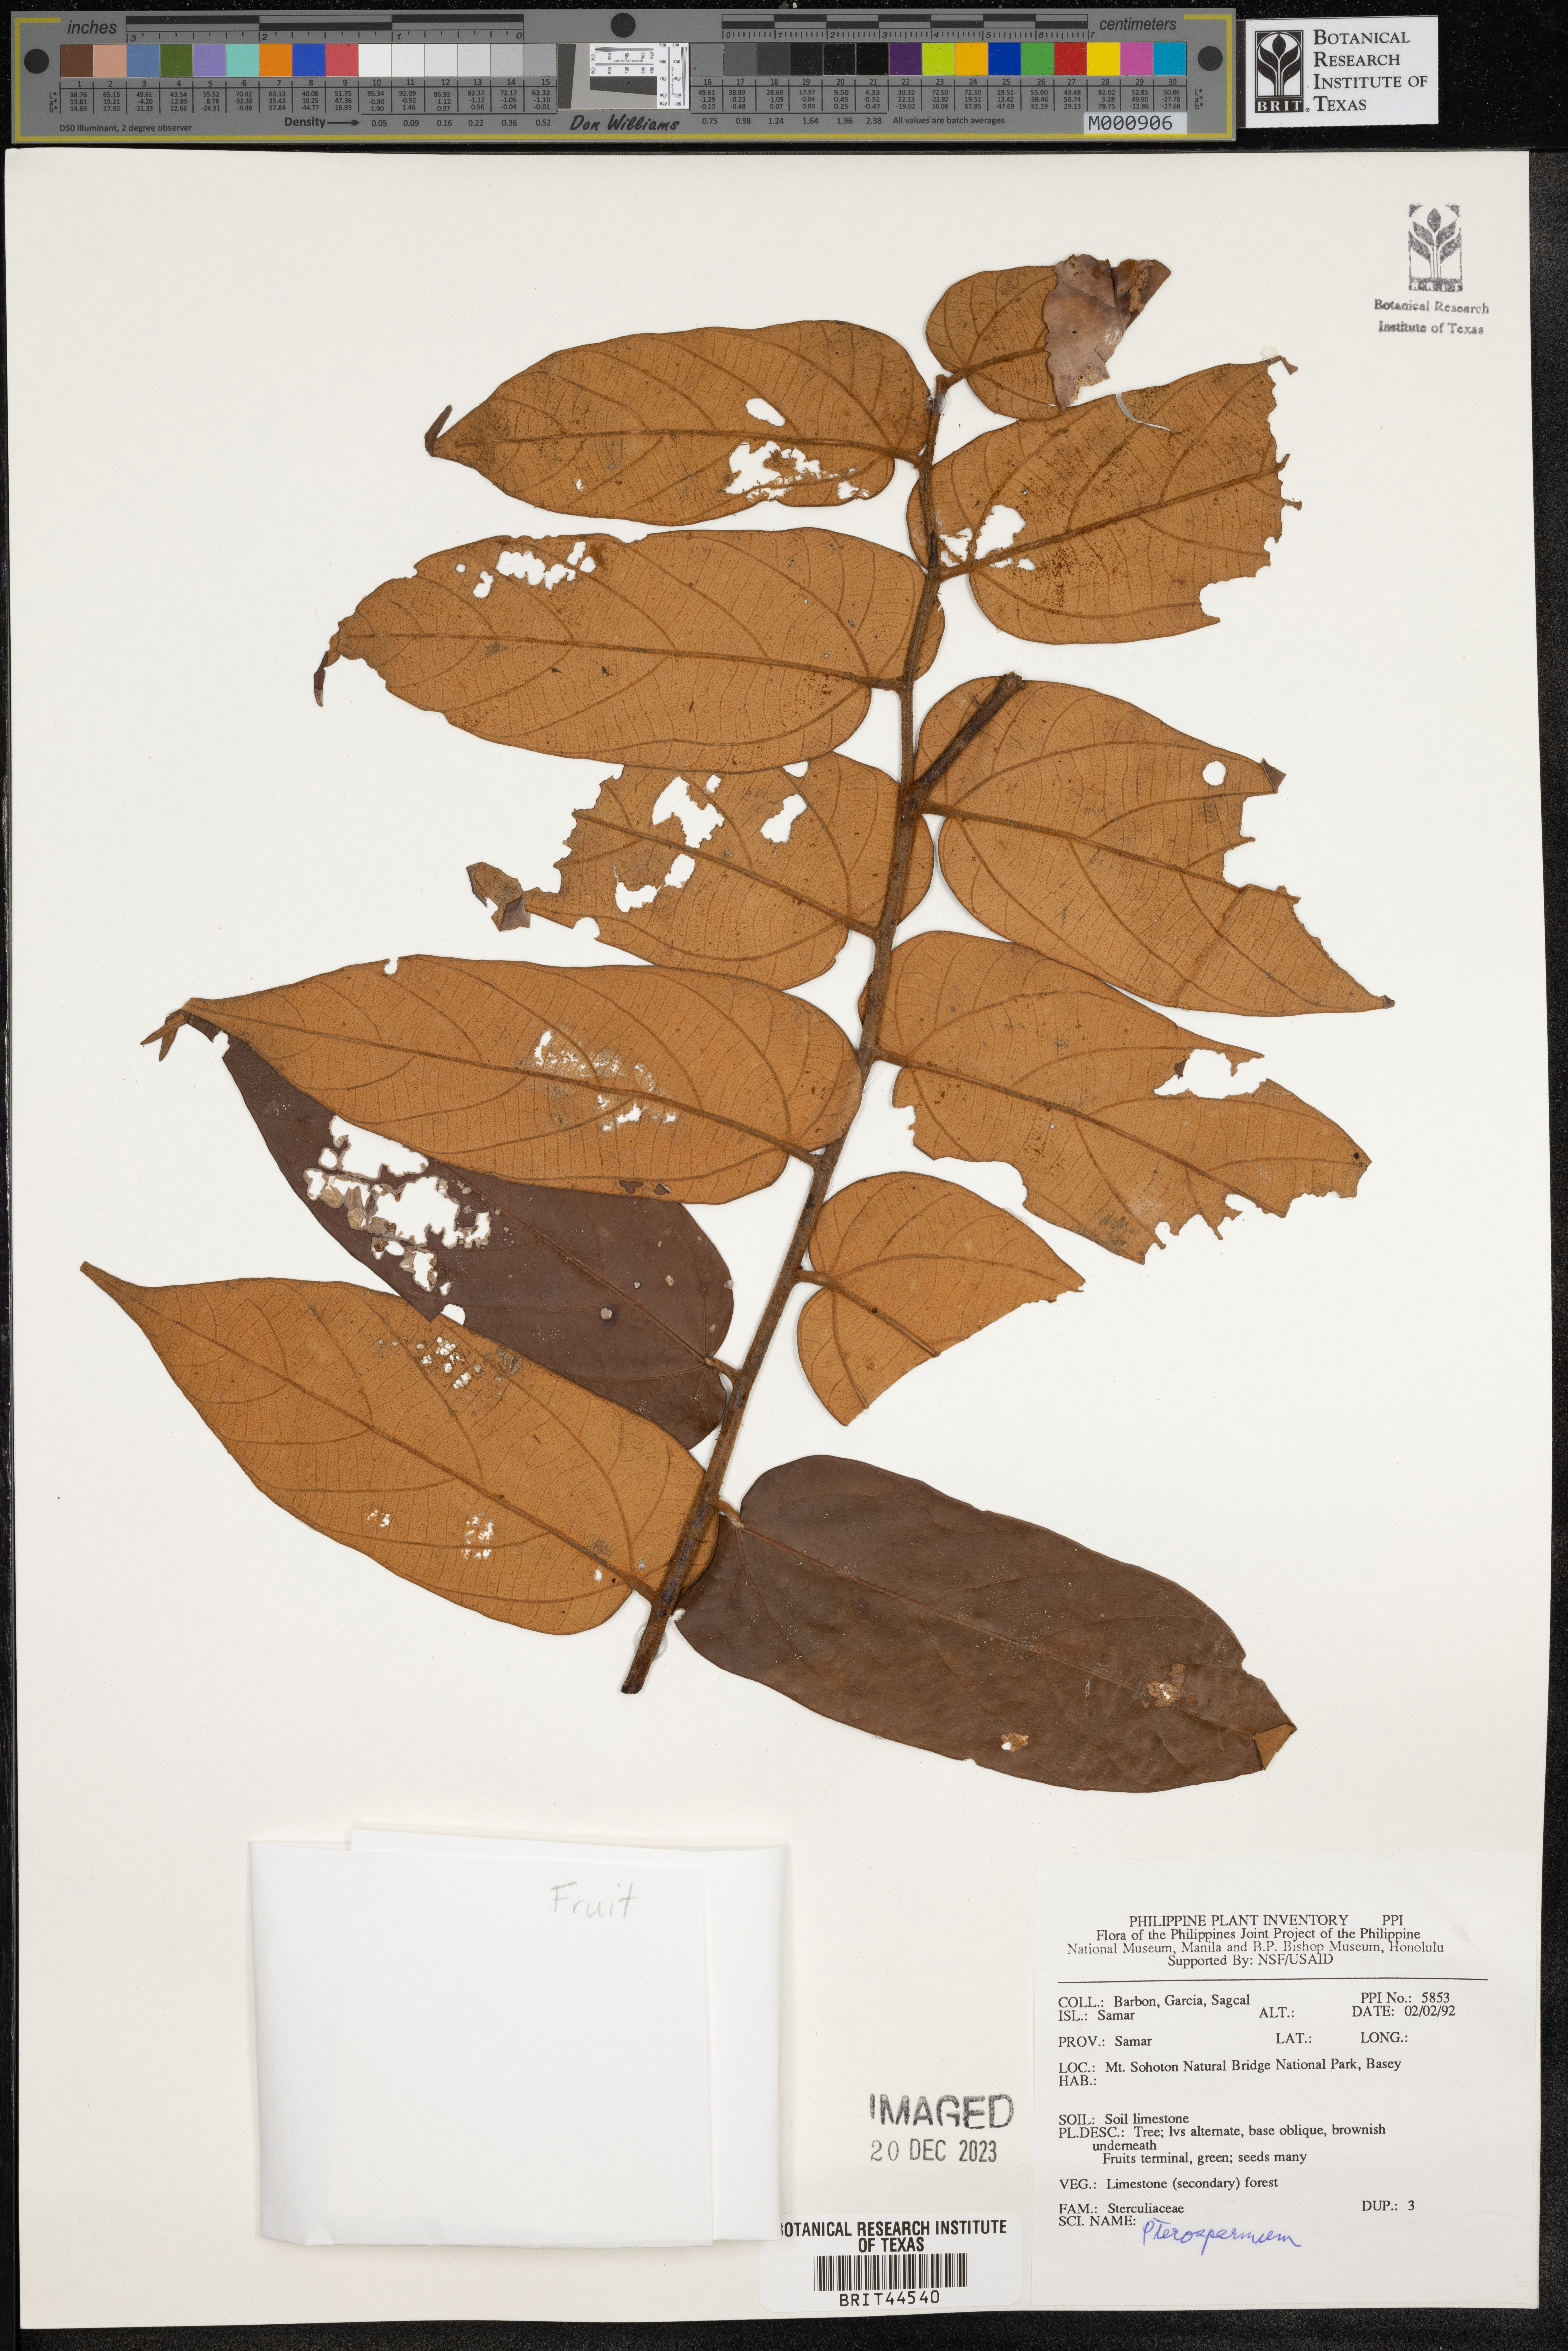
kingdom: Plantae
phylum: Tracheophyta
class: Magnoliopsida
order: Malvales
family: Malvaceae
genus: Pterospermum
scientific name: Pterospermum
